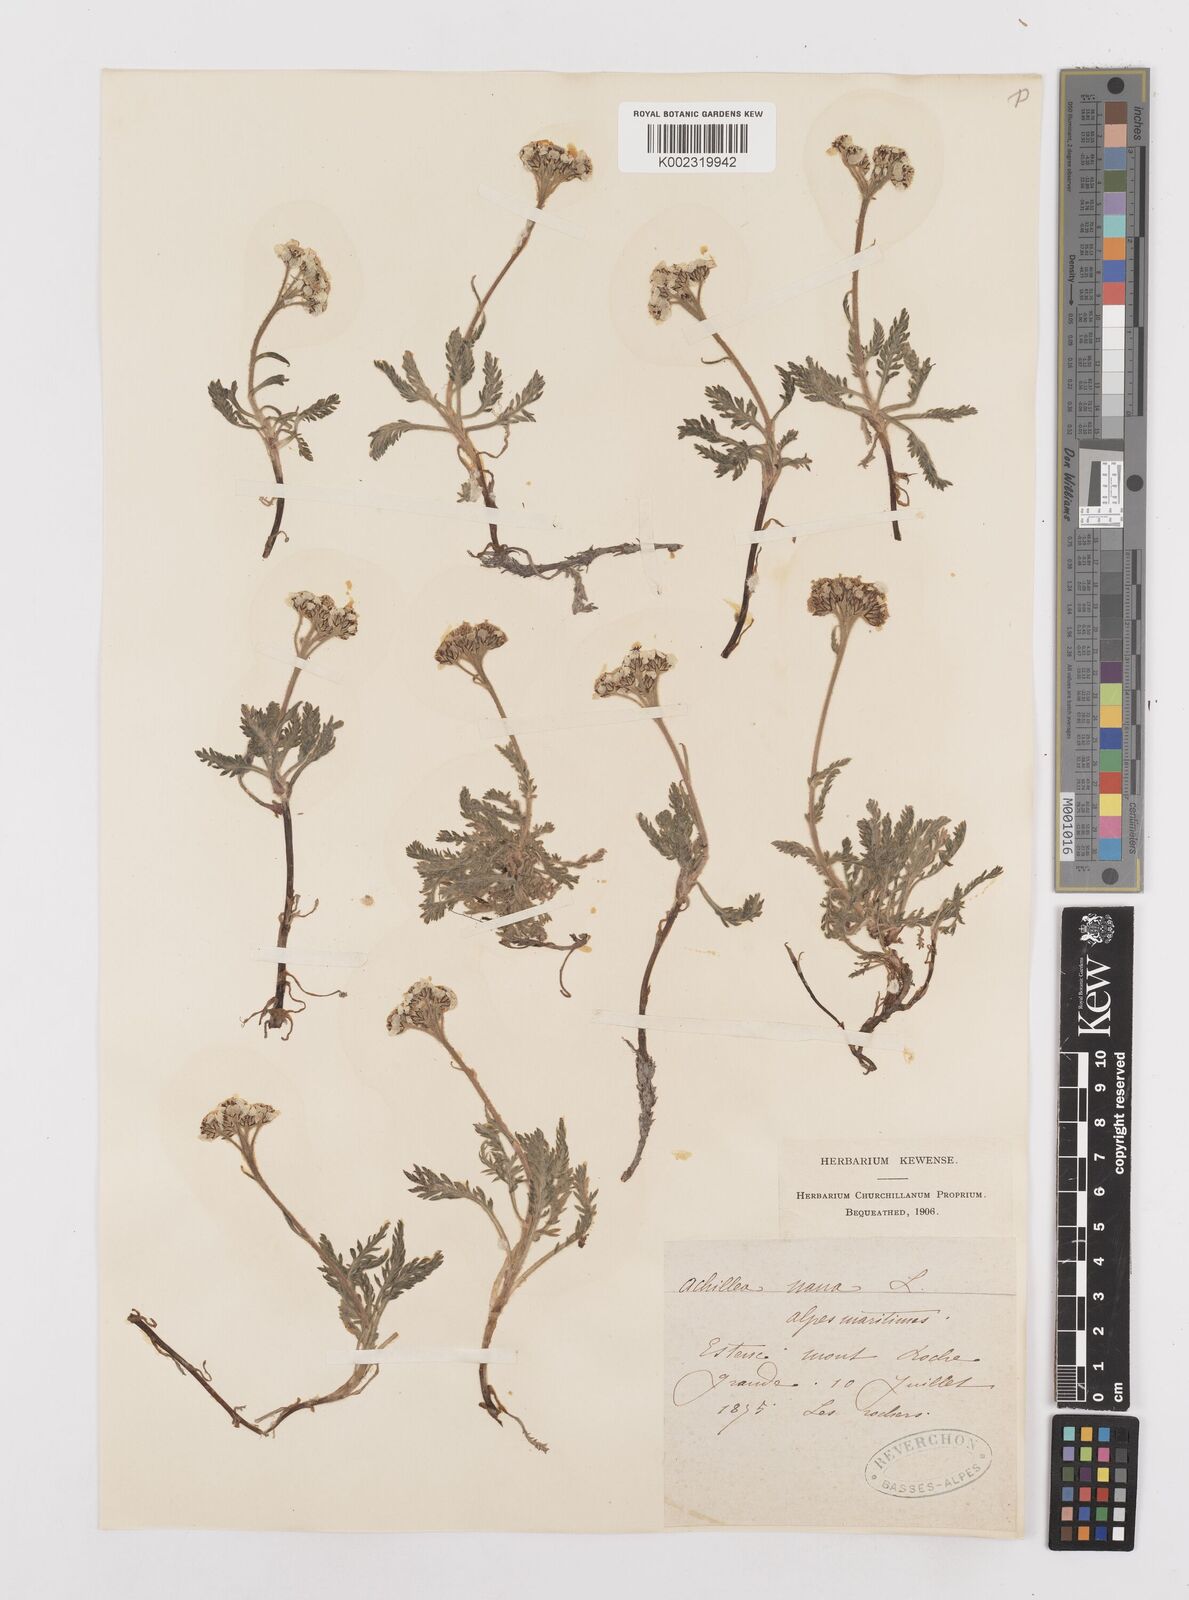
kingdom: Plantae
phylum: Tracheophyta
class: Magnoliopsida
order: Asterales
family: Asteraceae
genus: Achillea
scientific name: Achillea
